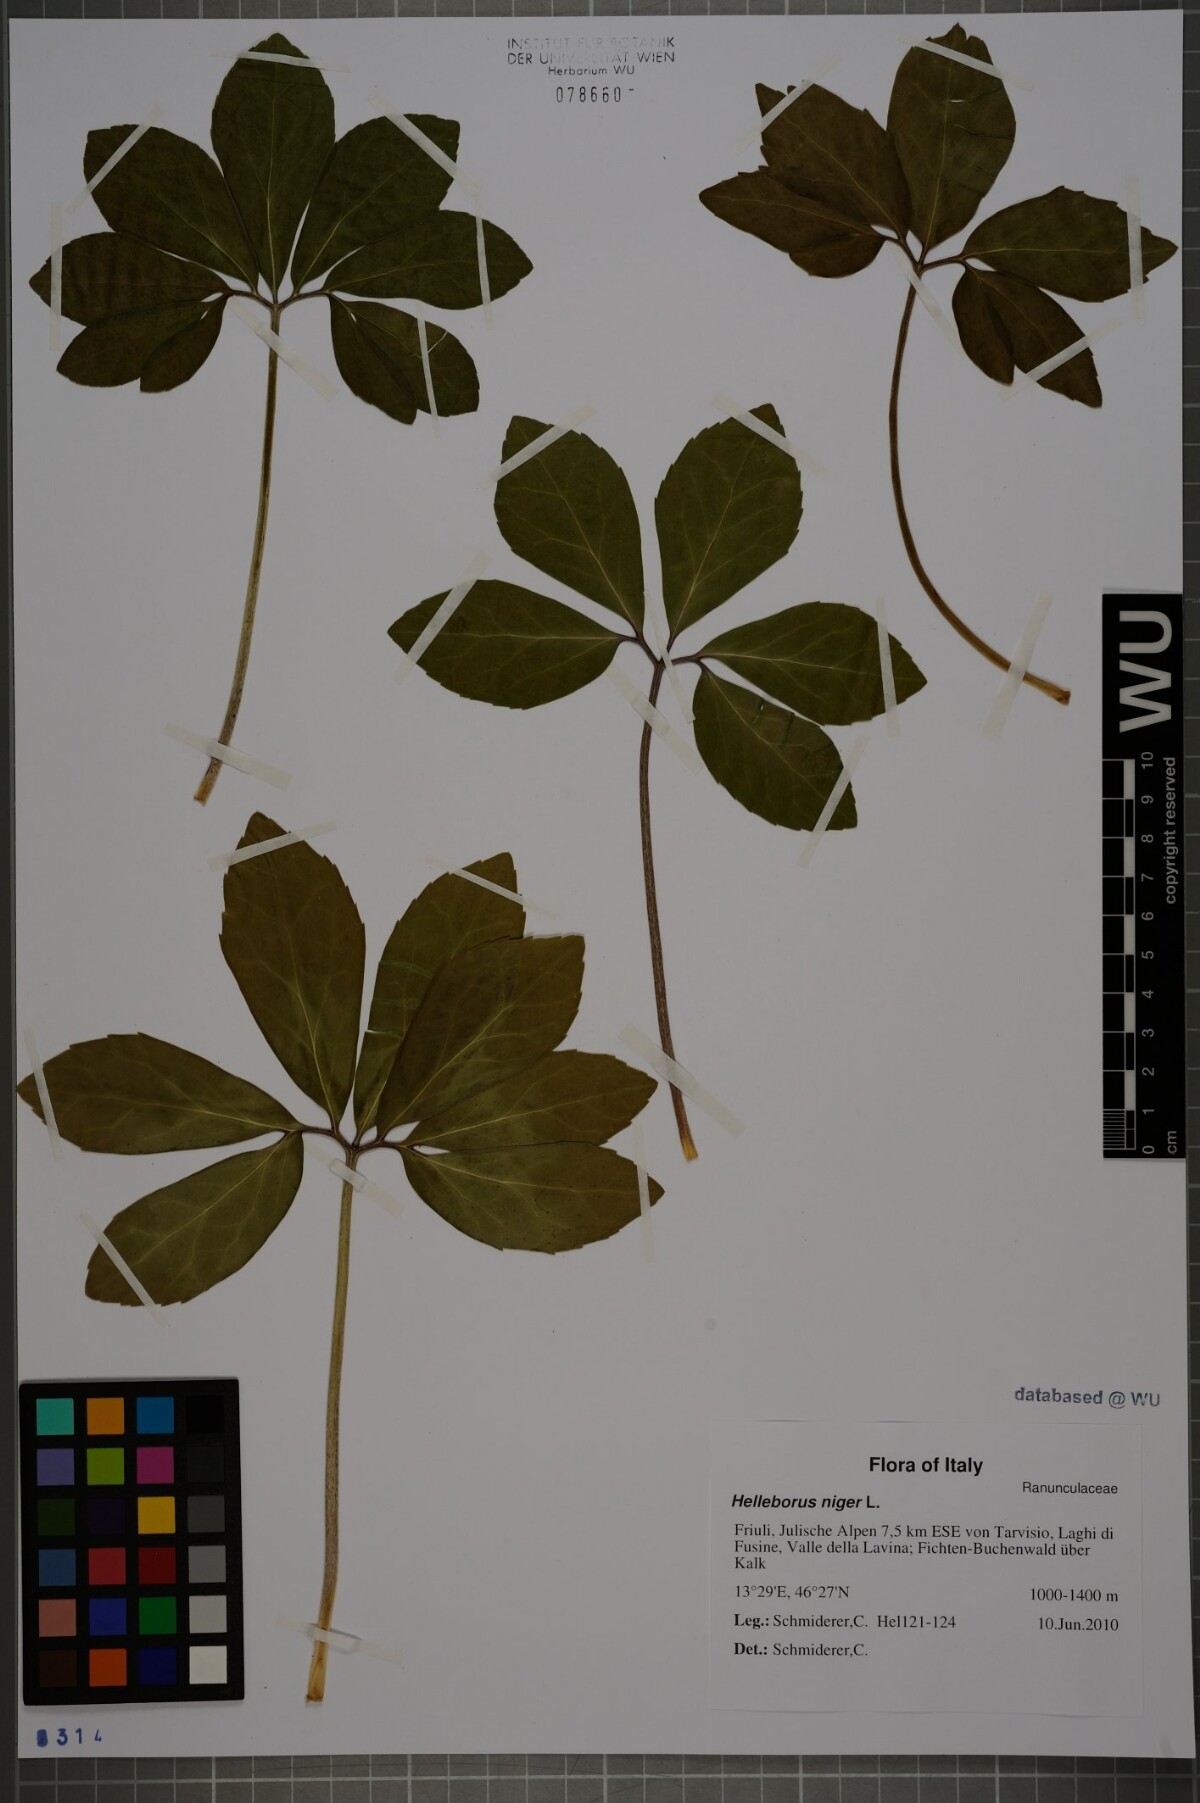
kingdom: Plantae
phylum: Tracheophyta
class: Magnoliopsida
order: Ranunculales
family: Ranunculaceae
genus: Helleborus
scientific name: Helleborus niger
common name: Black hellebore
